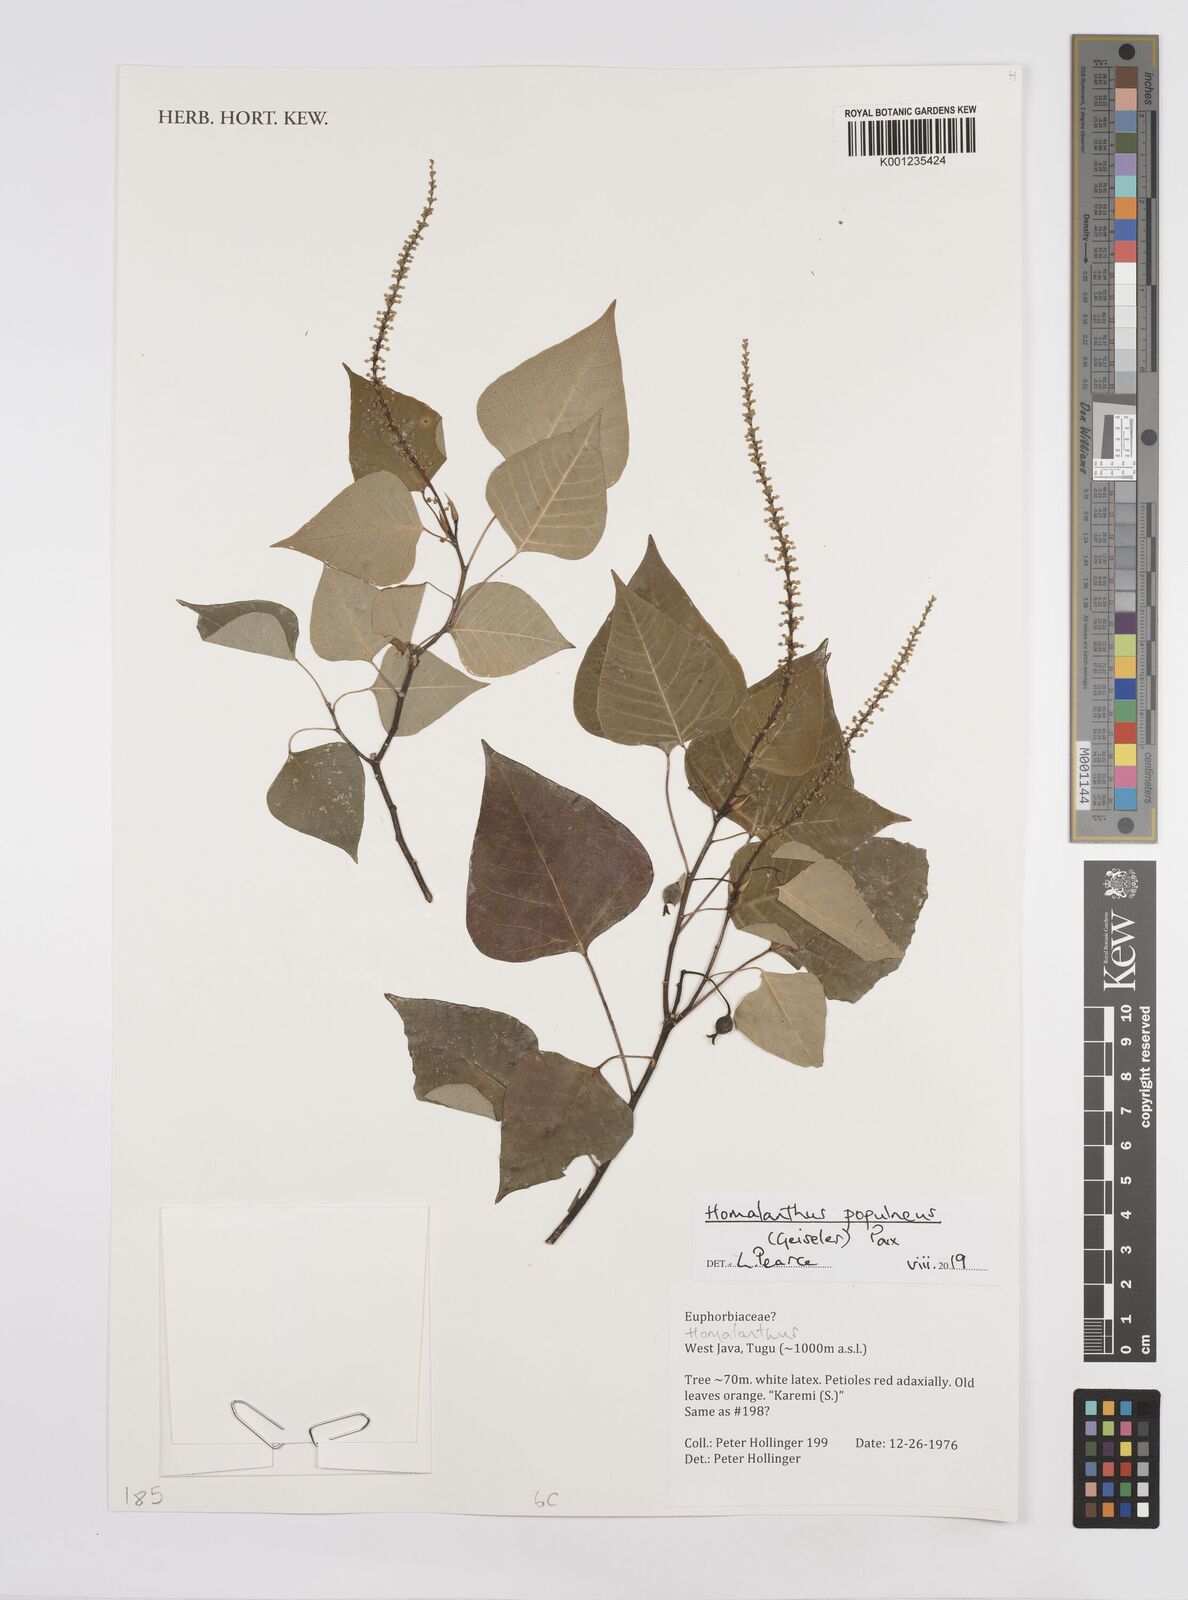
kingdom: Plantae
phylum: Tracheophyta
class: Magnoliopsida
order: Malpighiales
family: Euphorbiaceae
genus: Homalanthus
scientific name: Homalanthus populneus
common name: Spurge
